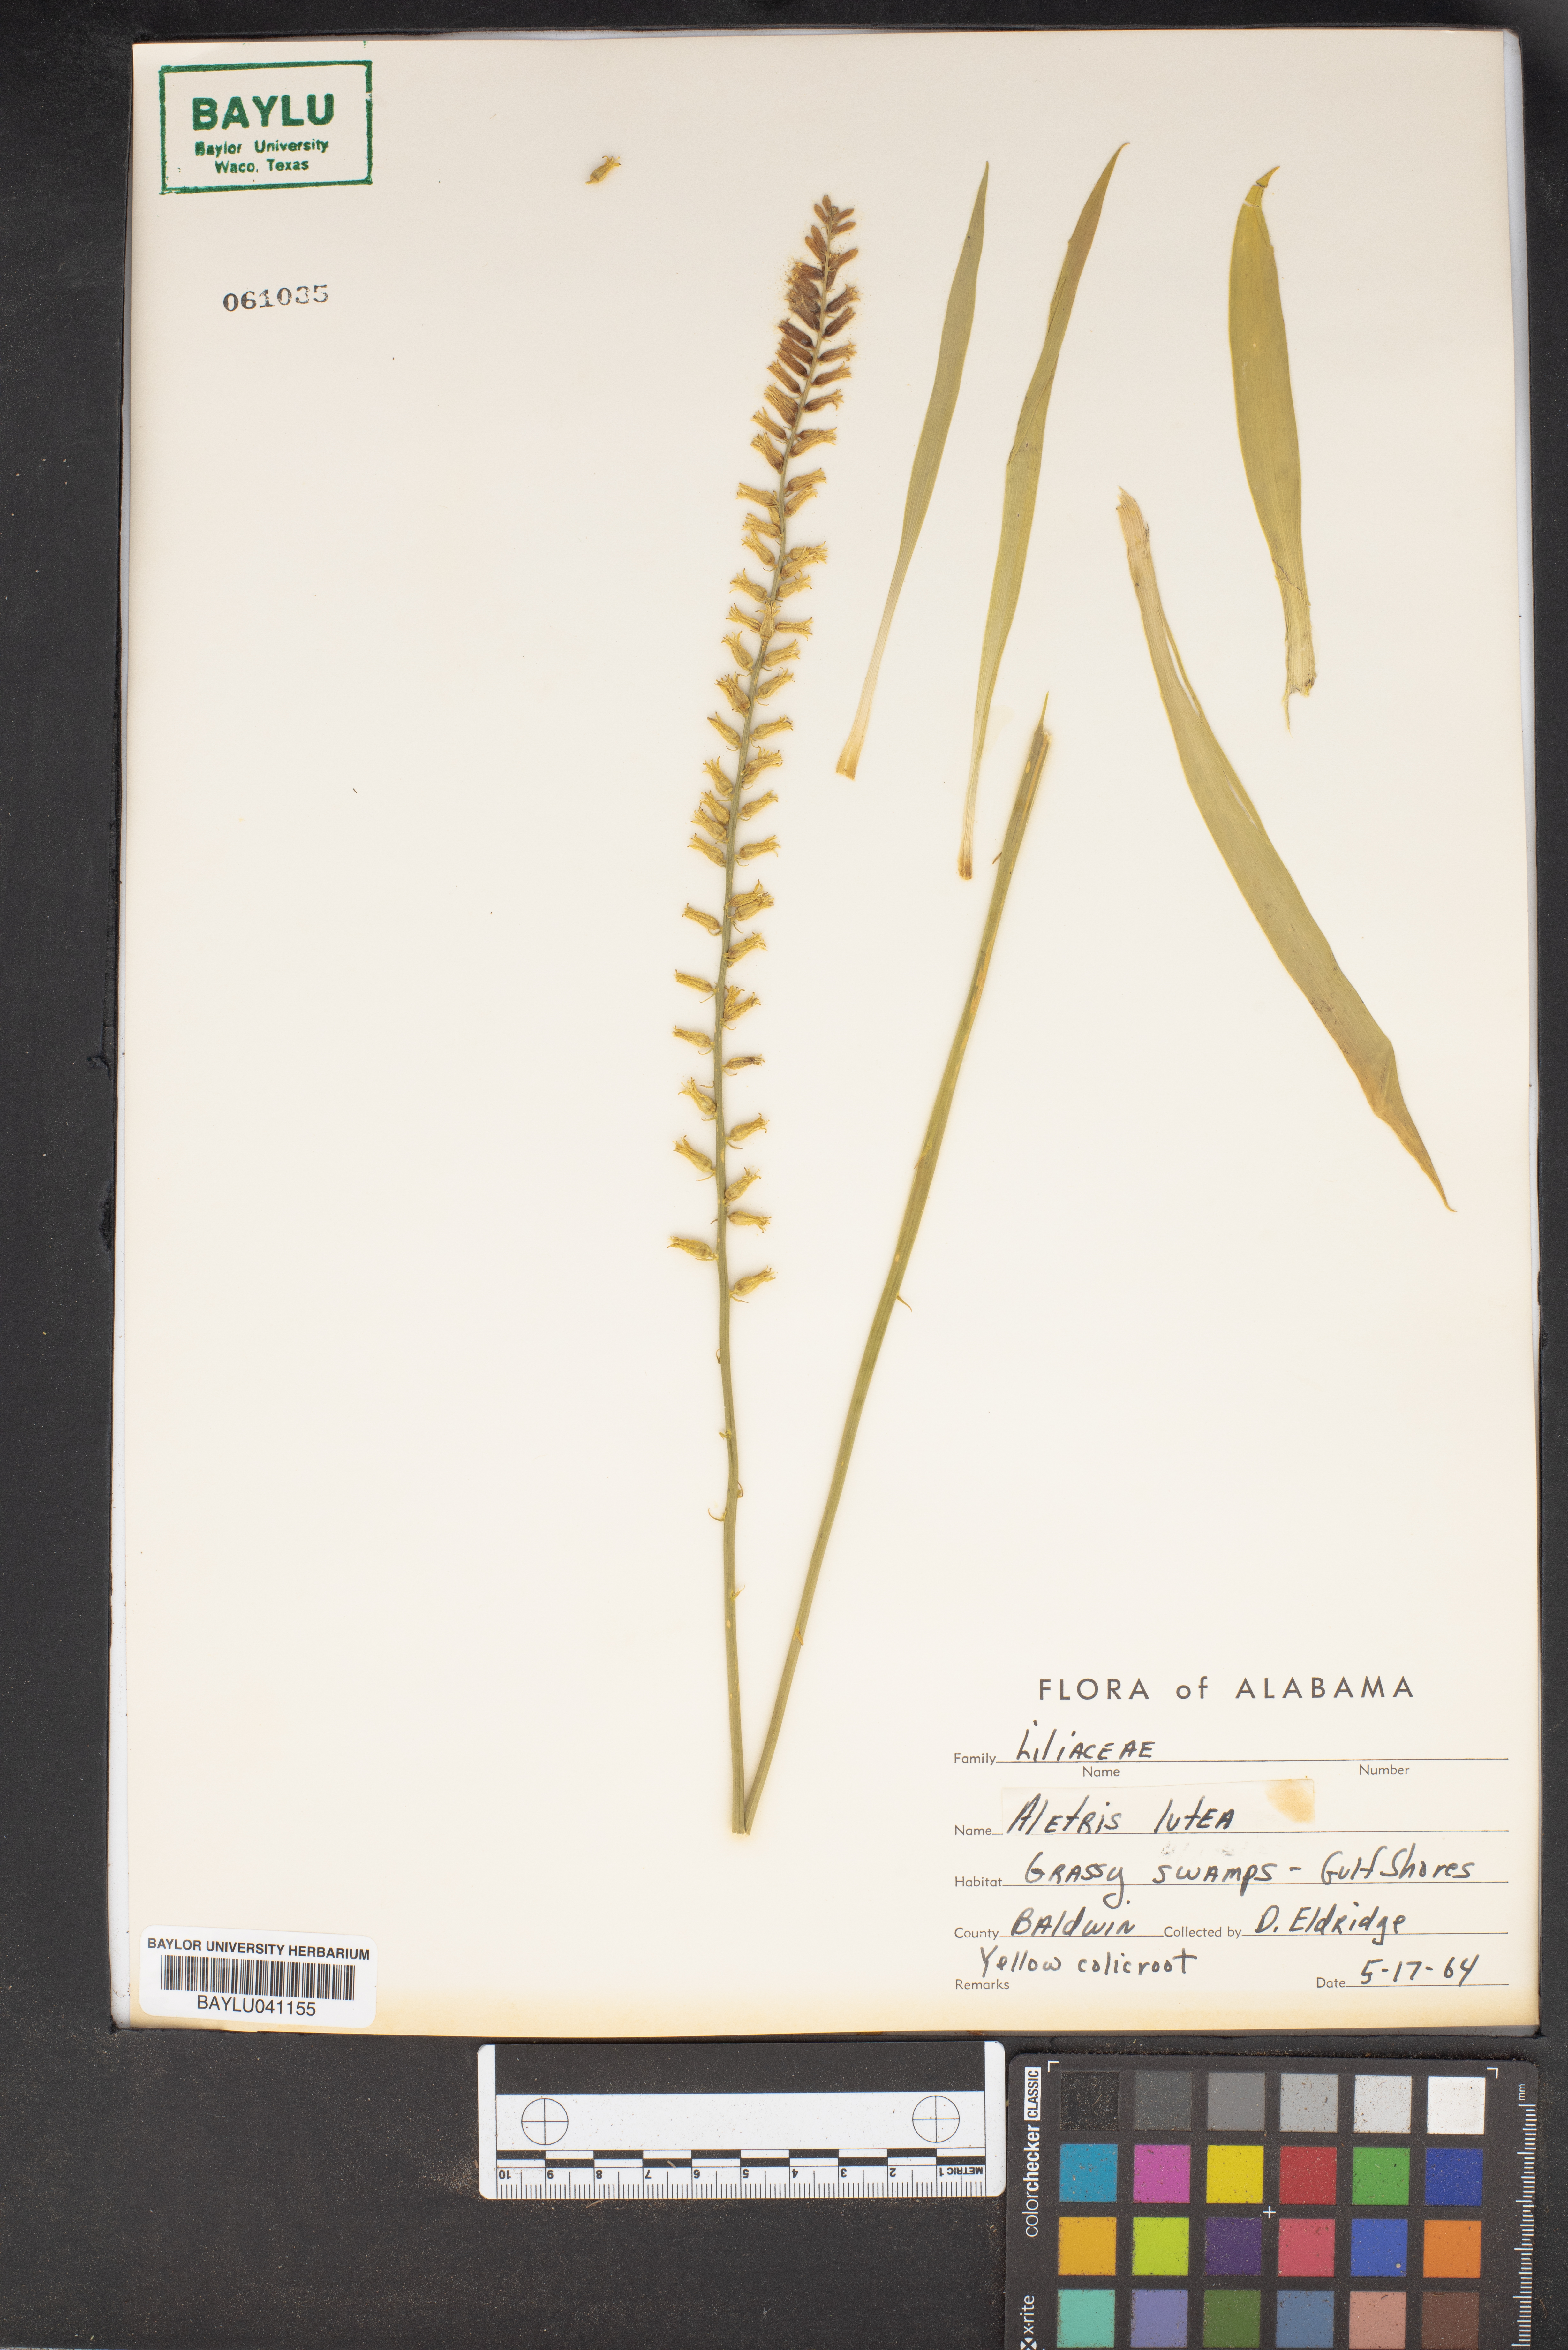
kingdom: Plantae
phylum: Tracheophyta
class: Liliopsida
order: Dioscoreales
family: Nartheciaceae
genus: Aletris
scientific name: Aletris lutea
